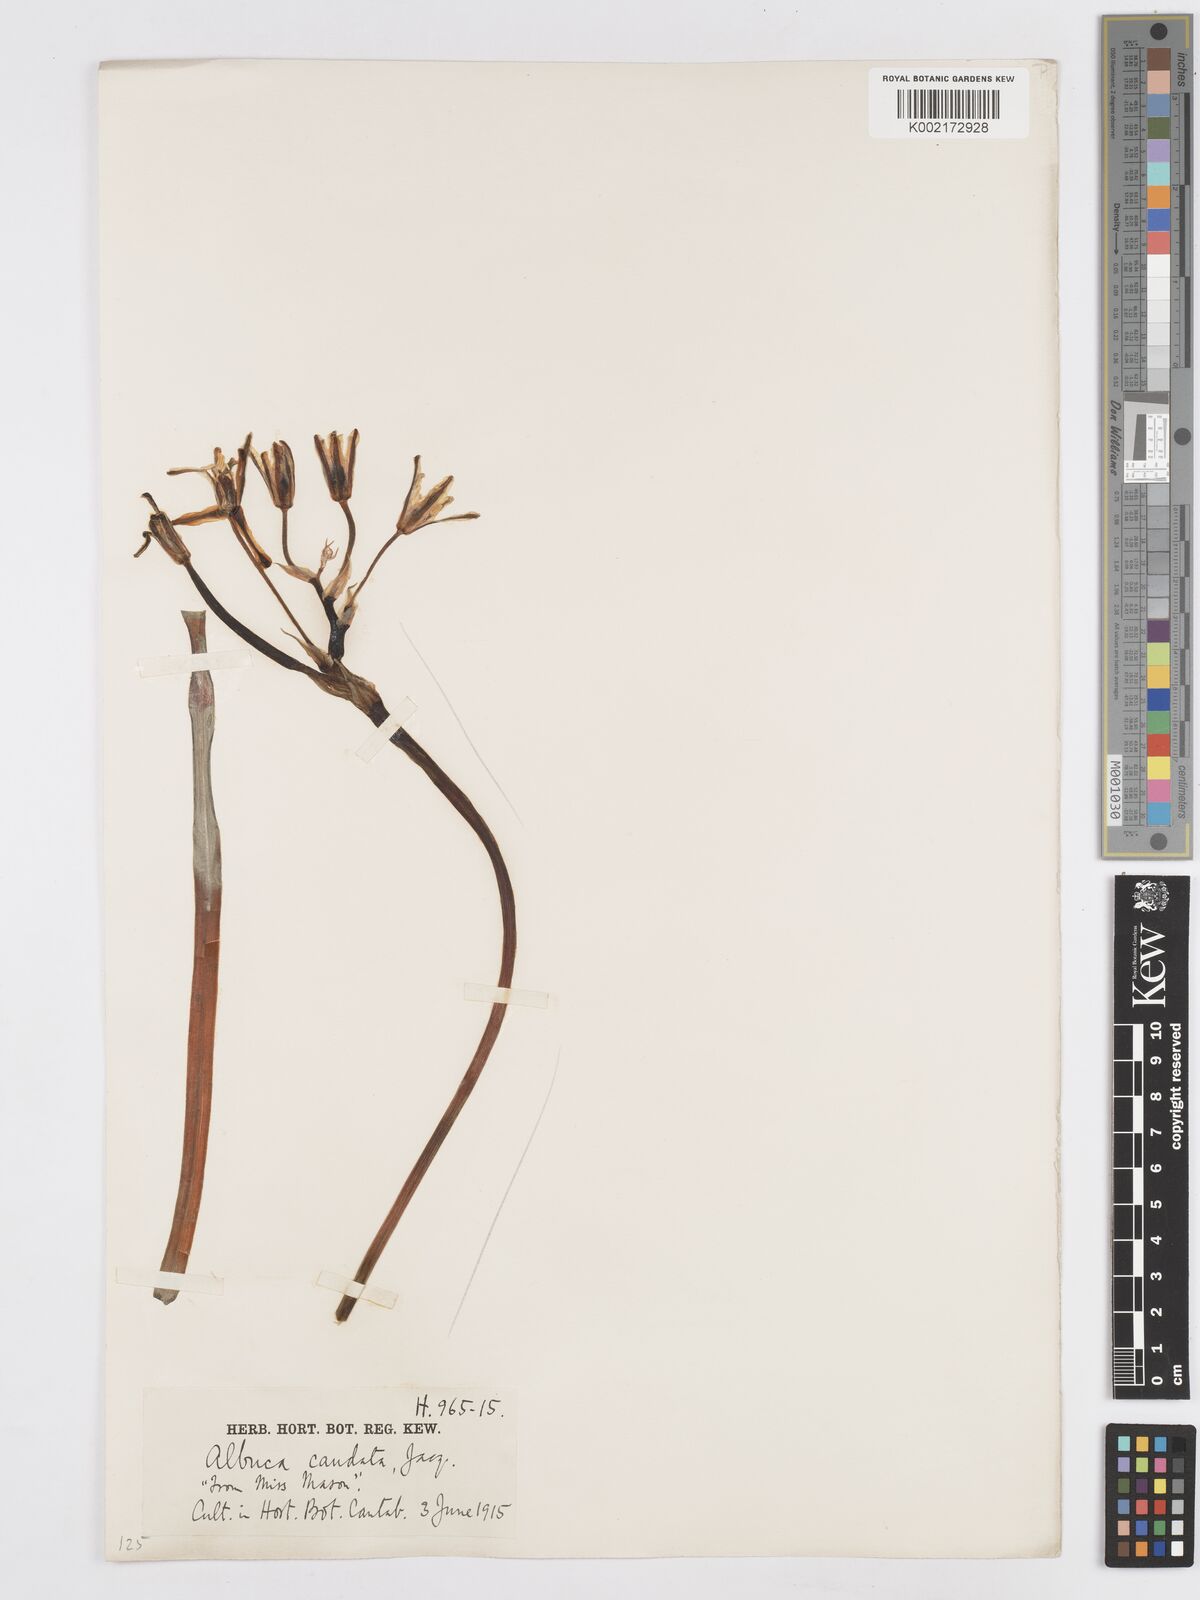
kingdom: Plantae
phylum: Tracheophyta
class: Liliopsida
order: Asparagales
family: Asparagaceae
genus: Albuca
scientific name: Albuca caudata
